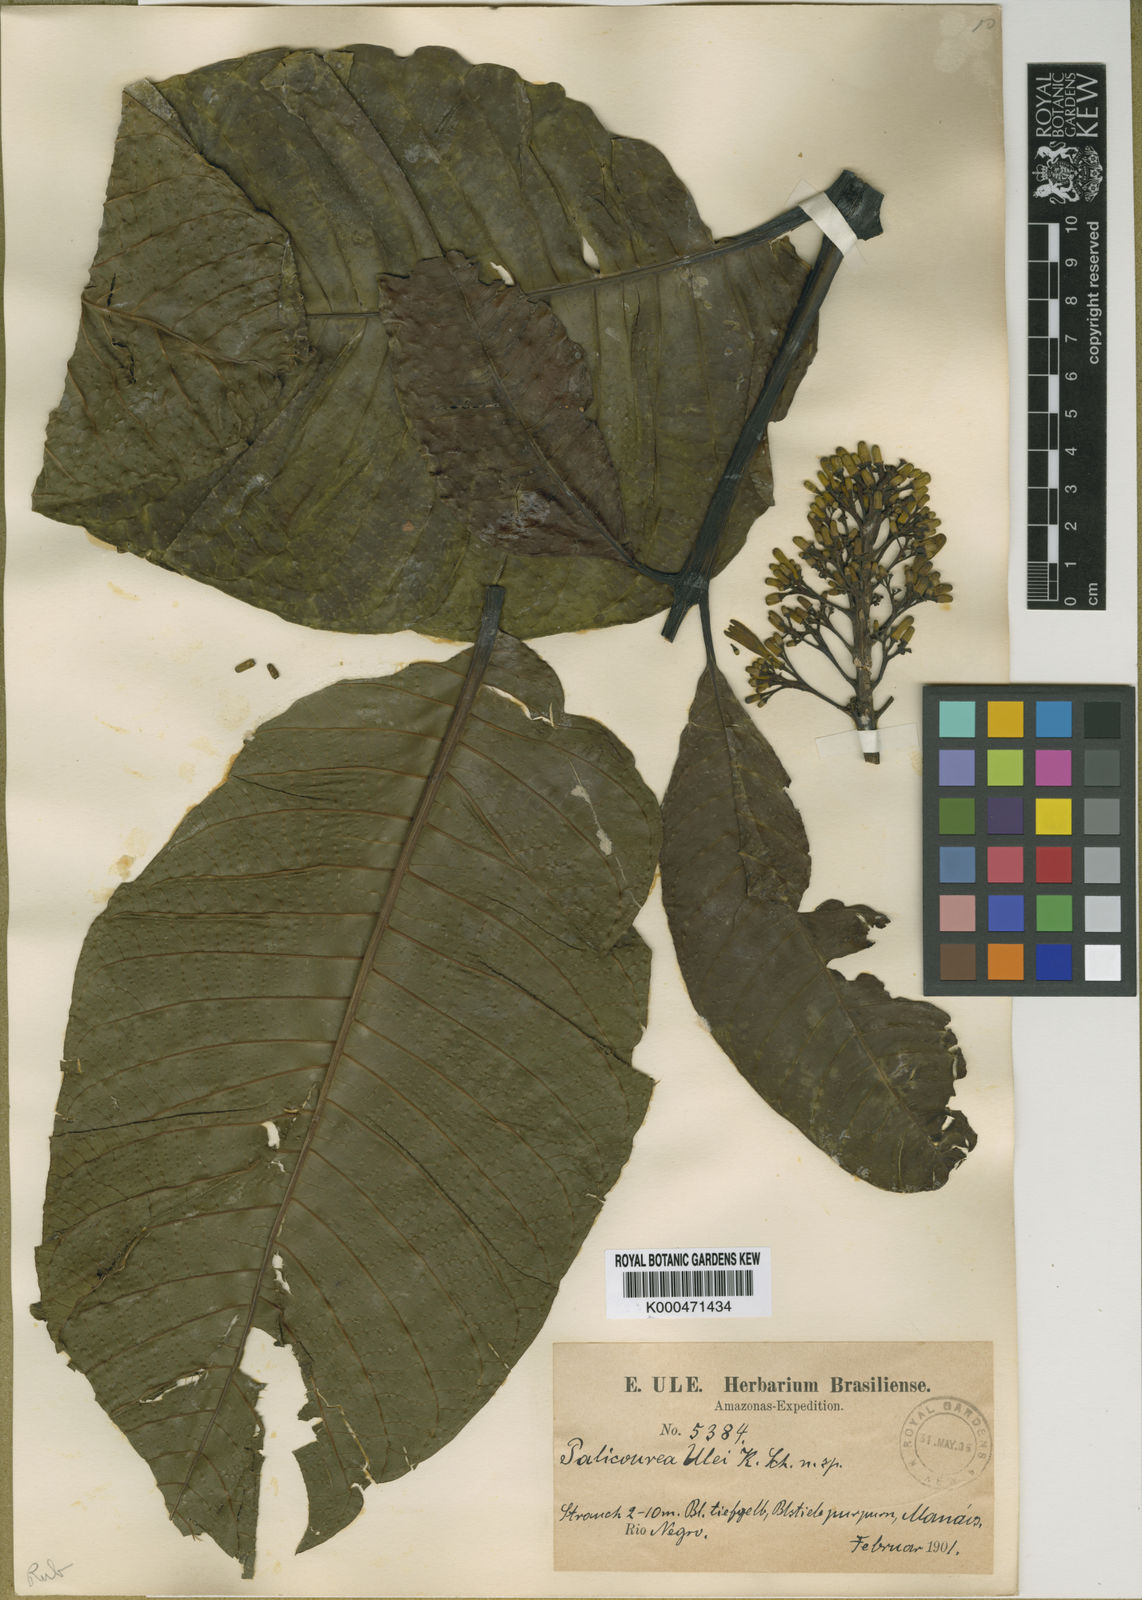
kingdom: Plantae
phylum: Tracheophyta
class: Magnoliopsida
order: Gentianales
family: Rubiaceae
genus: Palicourea
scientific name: Palicourea
